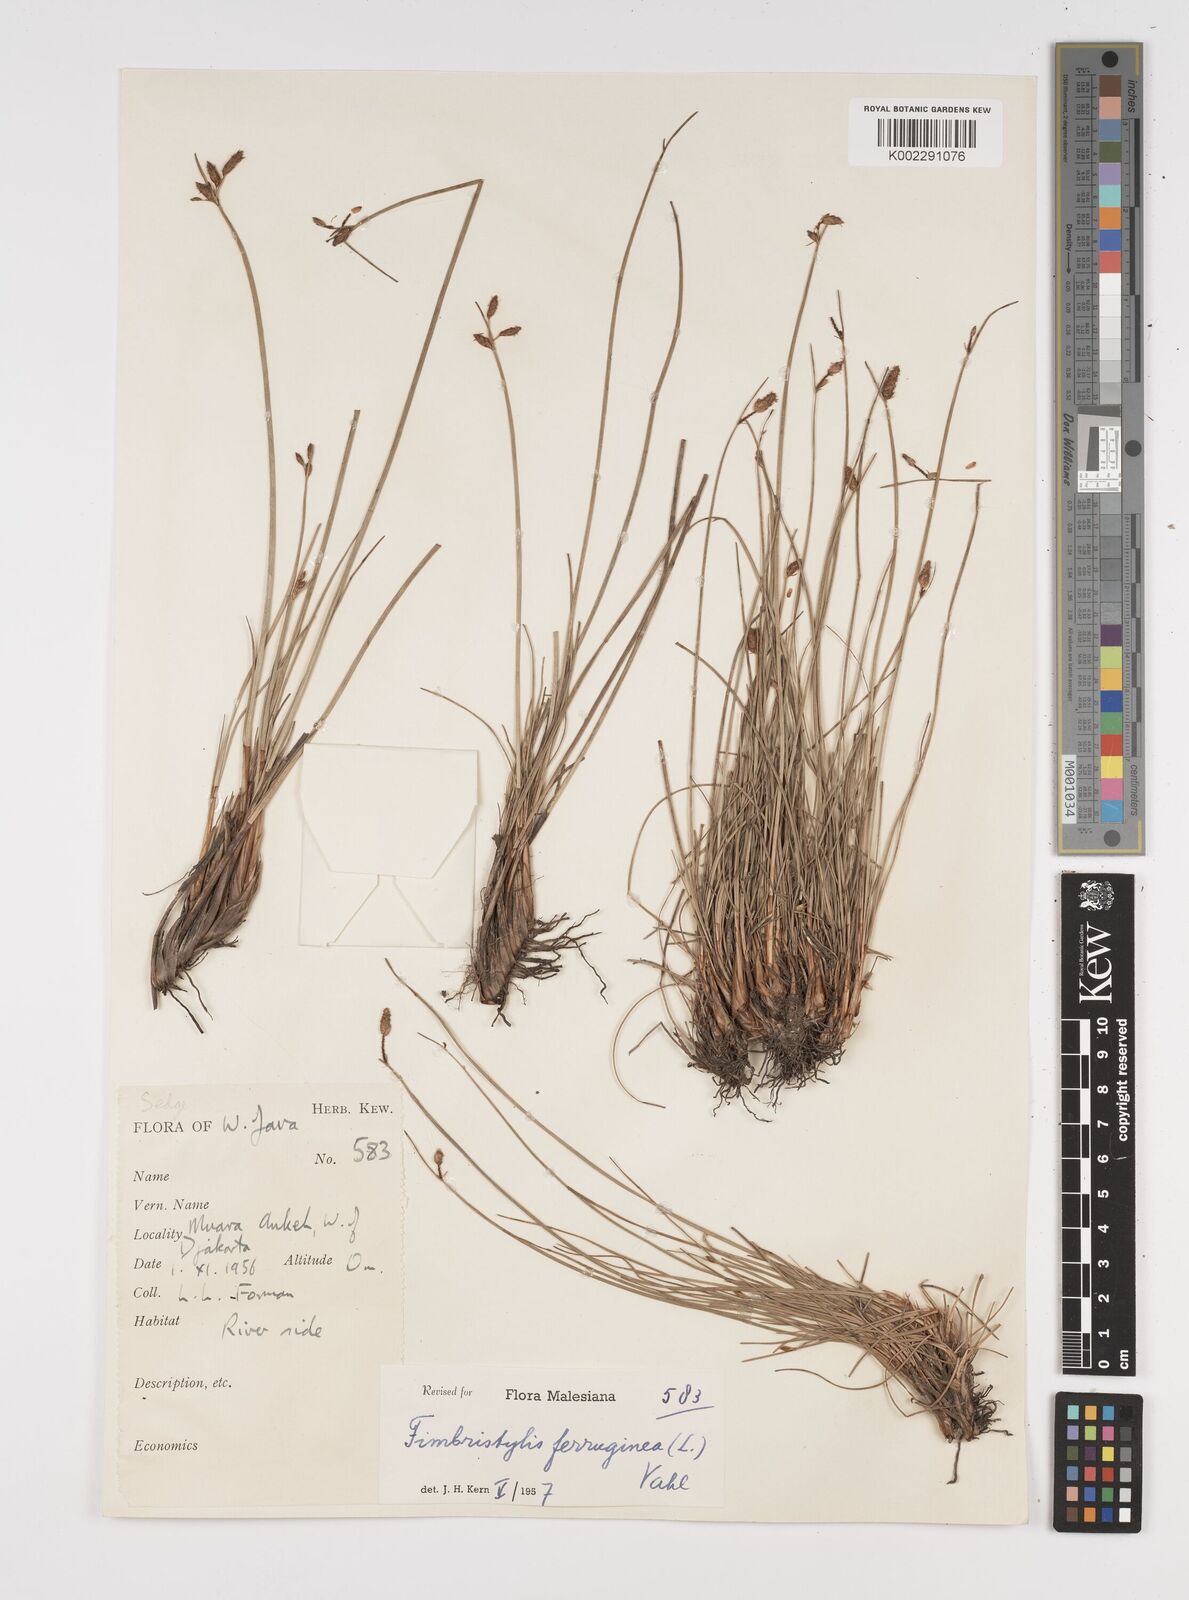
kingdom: Plantae
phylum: Tracheophyta
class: Liliopsida
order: Poales
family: Cyperaceae
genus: Fimbristylis
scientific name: Fimbristylis ferruginea
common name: West indian fimbry
